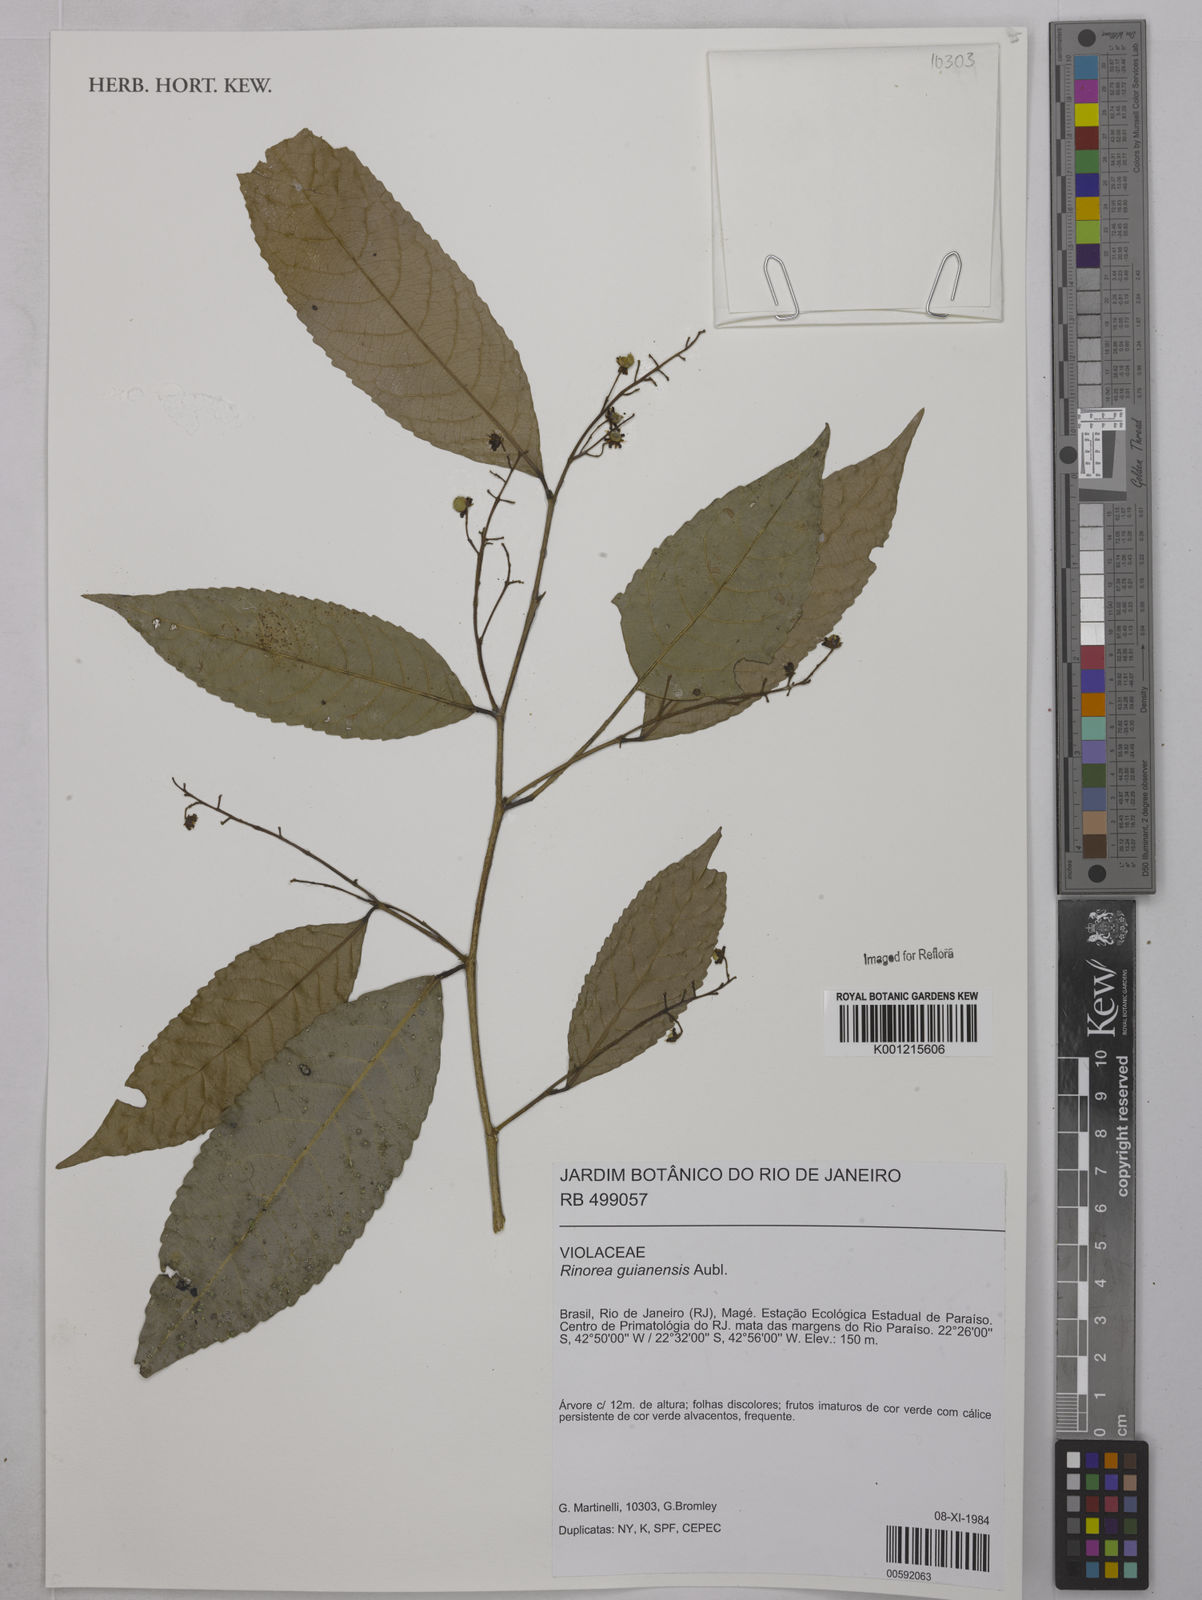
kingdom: Plantae
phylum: Tracheophyta
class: Magnoliopsida
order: Malpighiales
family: Violaceae
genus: Rinorea
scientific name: Rinorea guianensis
